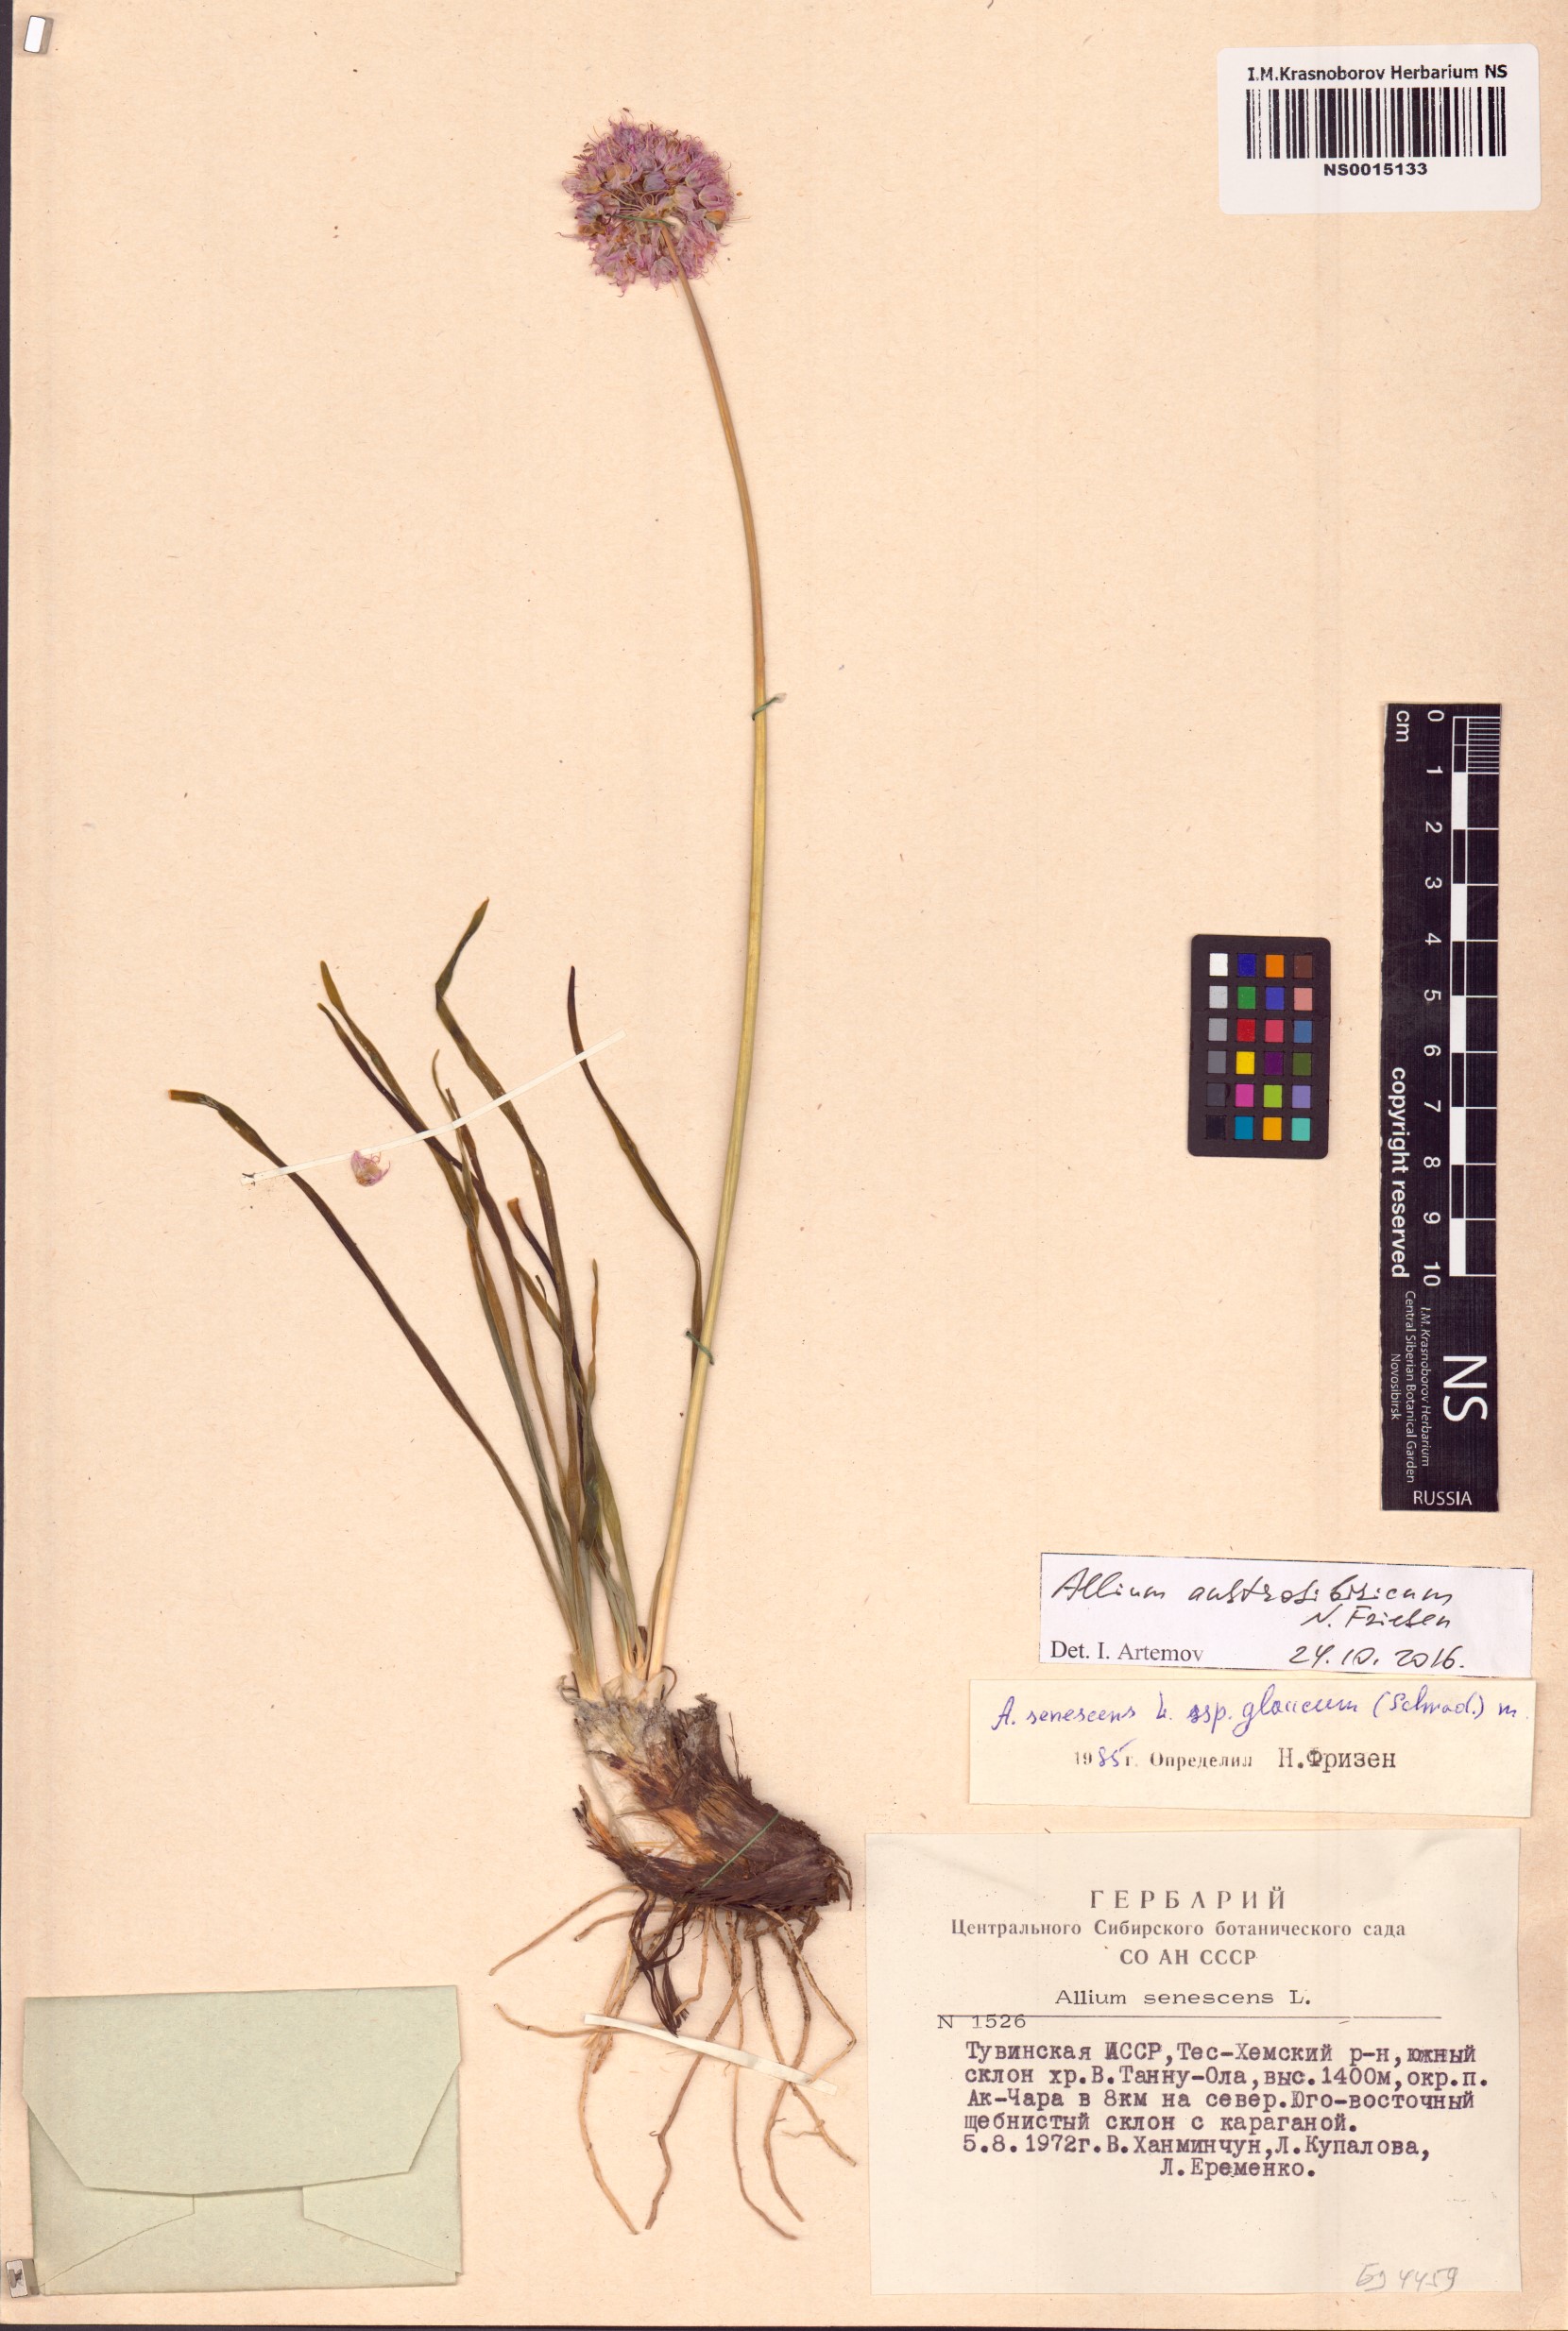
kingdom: Plantae
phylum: Tracheophyta
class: Liliopsida
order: Asparagales
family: Amaryllidaceae
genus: Allium
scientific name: Allium austrosibiricum
